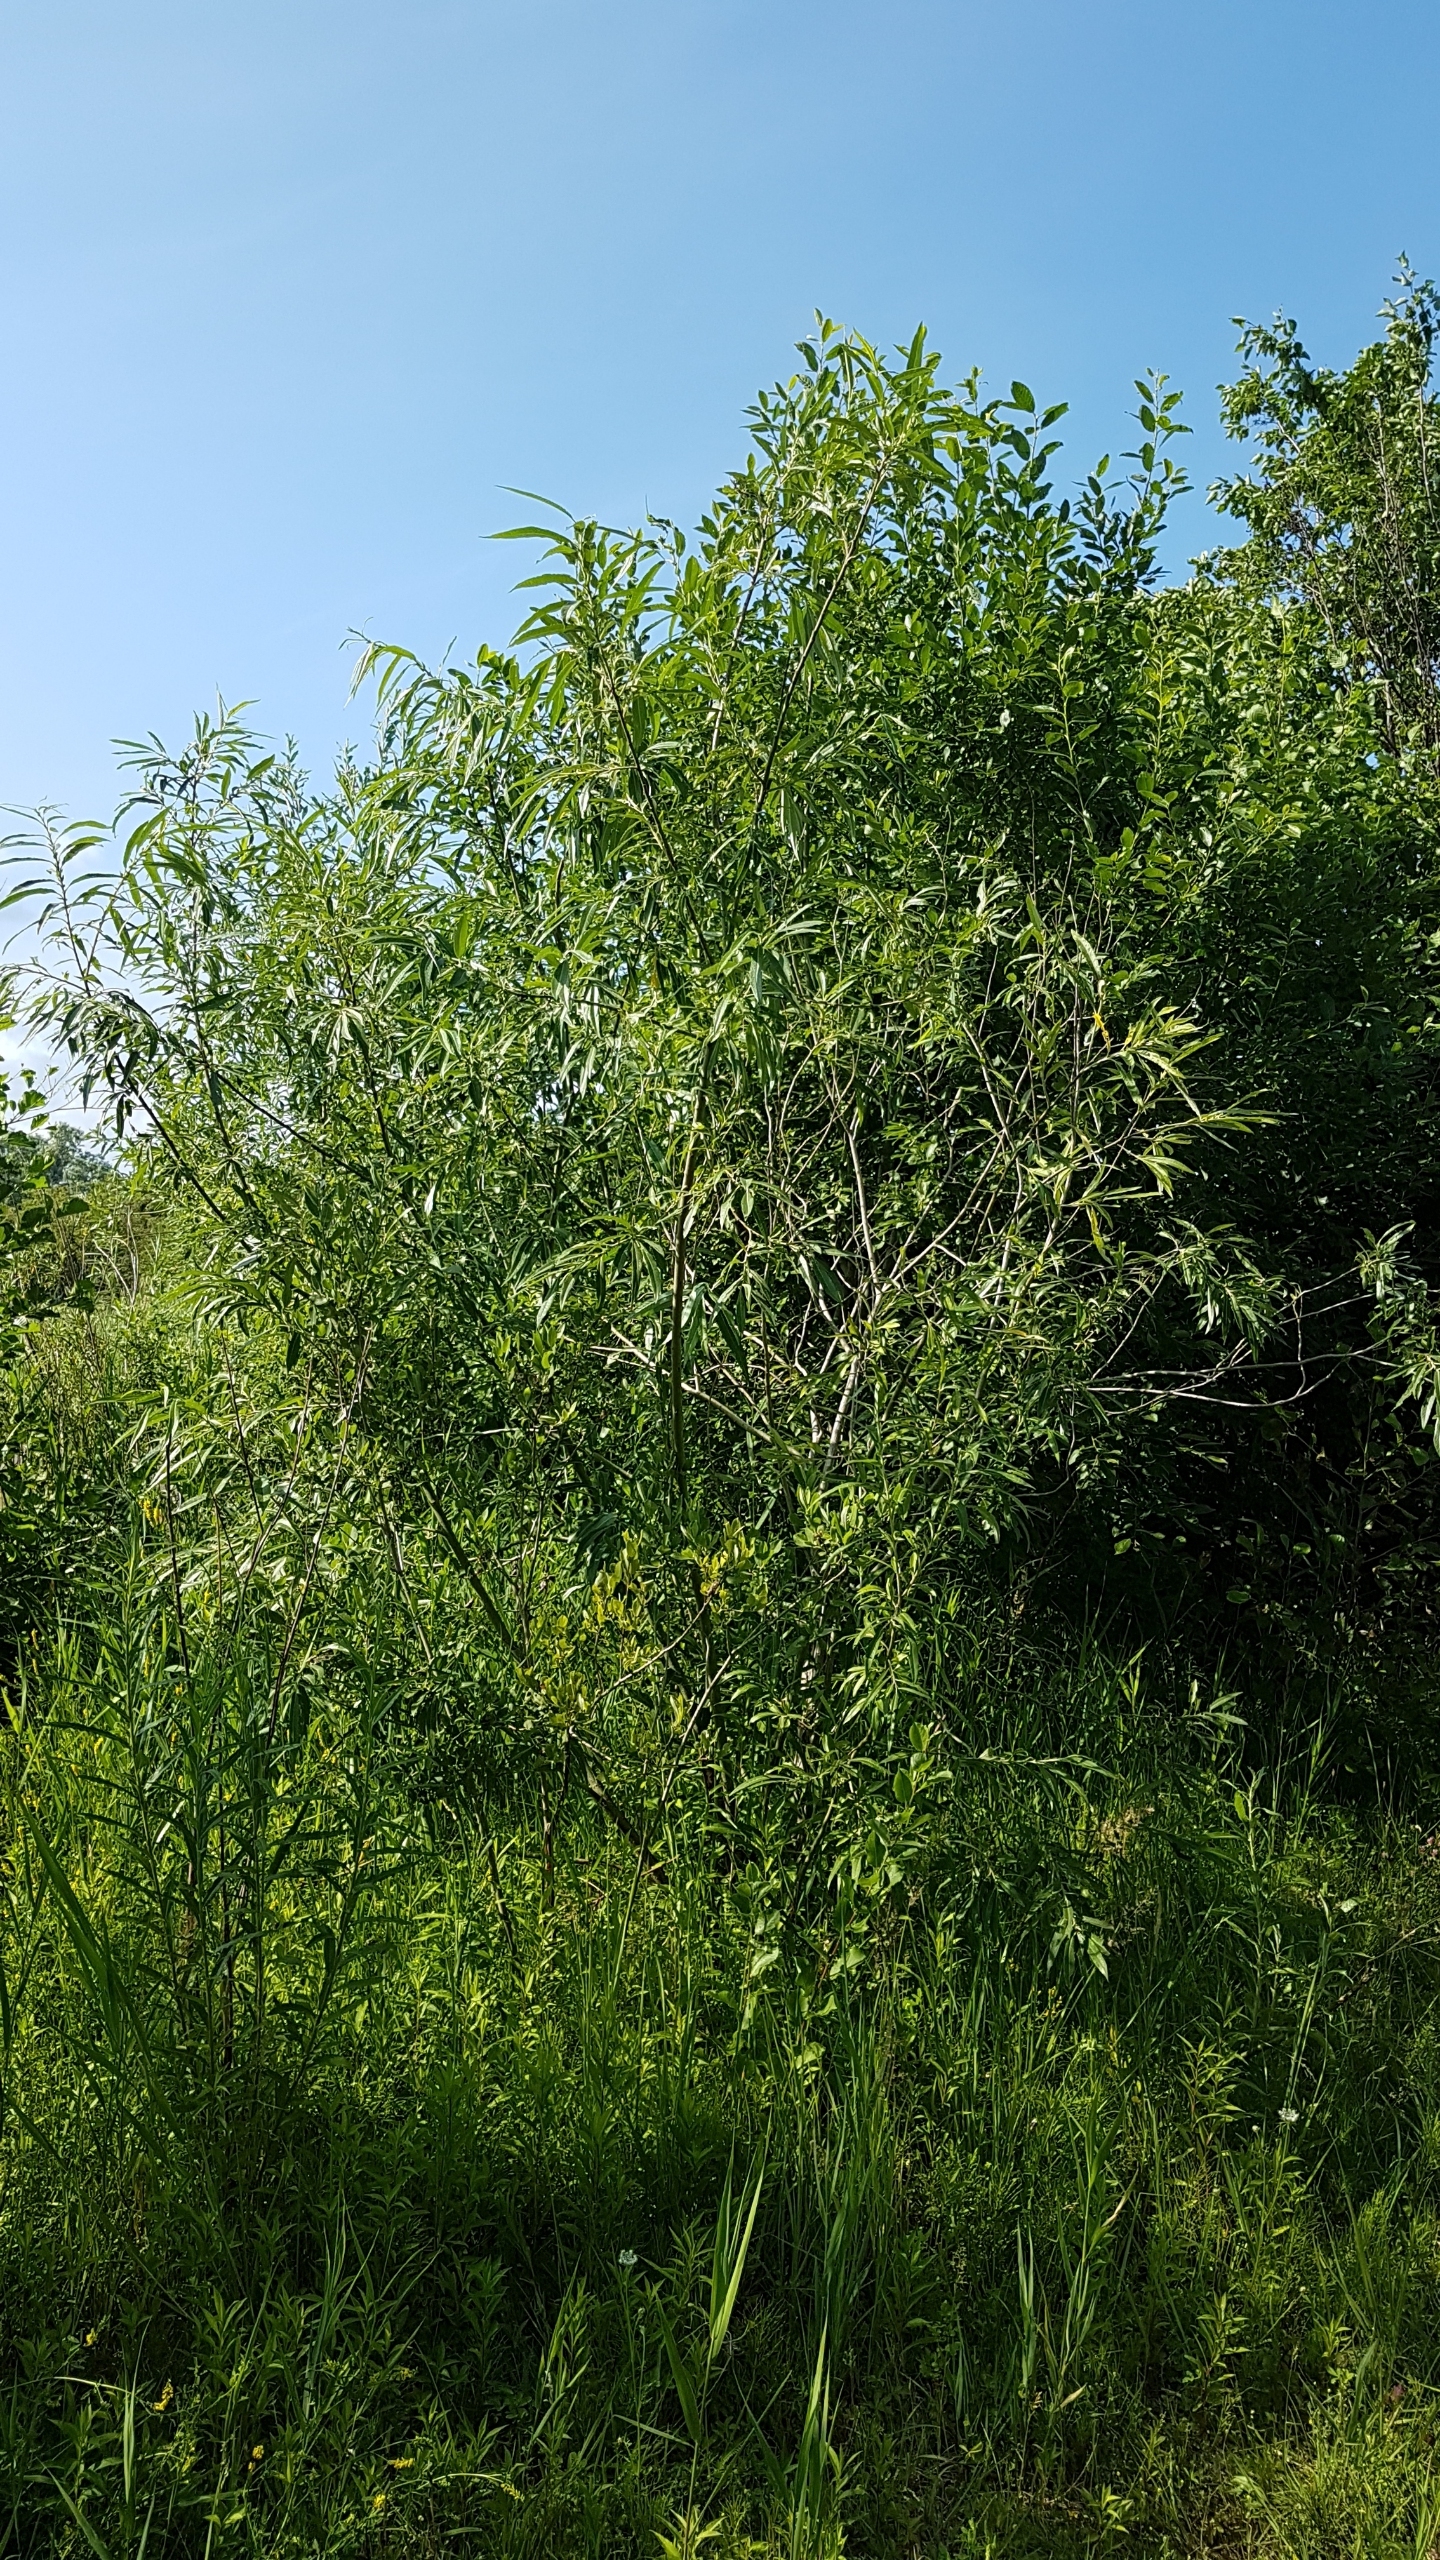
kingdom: Plantae
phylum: Tracheophyta
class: Magnoliopsida
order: Malpighiales
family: Salicaceae
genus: Salix
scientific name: Salix
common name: Pileslægten
